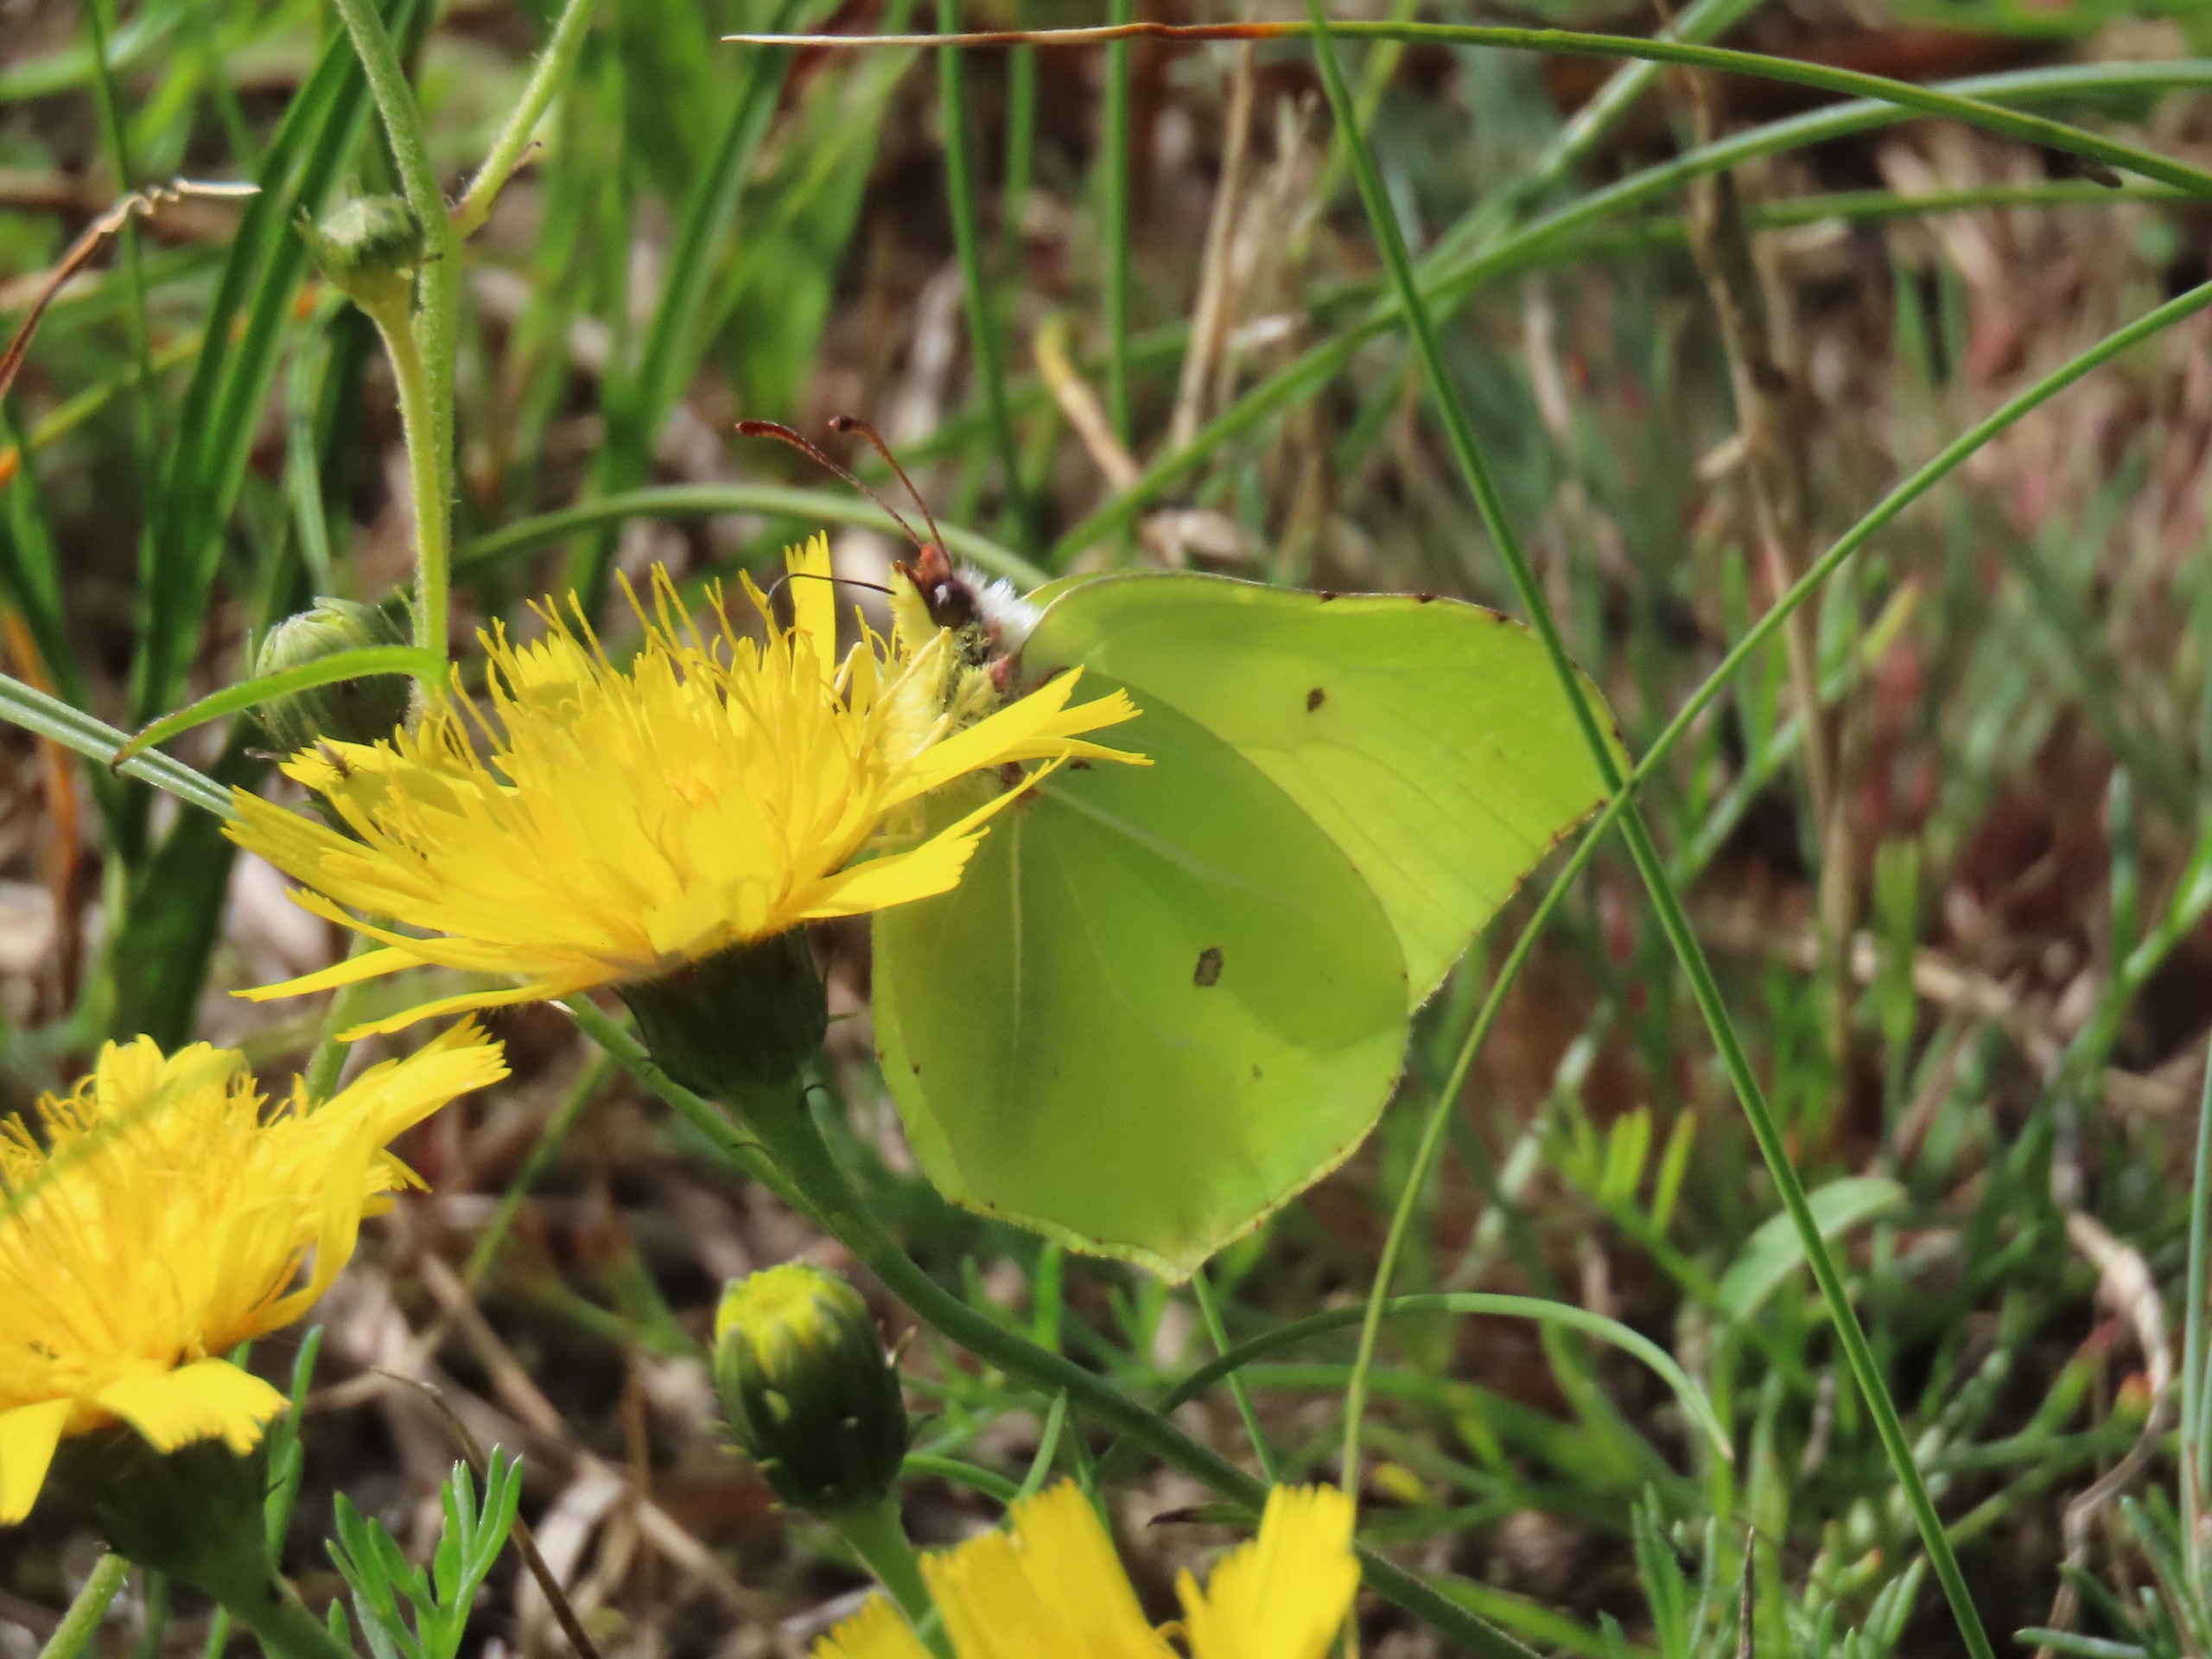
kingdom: Animalia
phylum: Arthropoda
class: Insecta
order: Lepidoptera
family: Pieridae
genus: Gonepteryx
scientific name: Gonepteryx rhamni
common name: Citronsommerfugl
